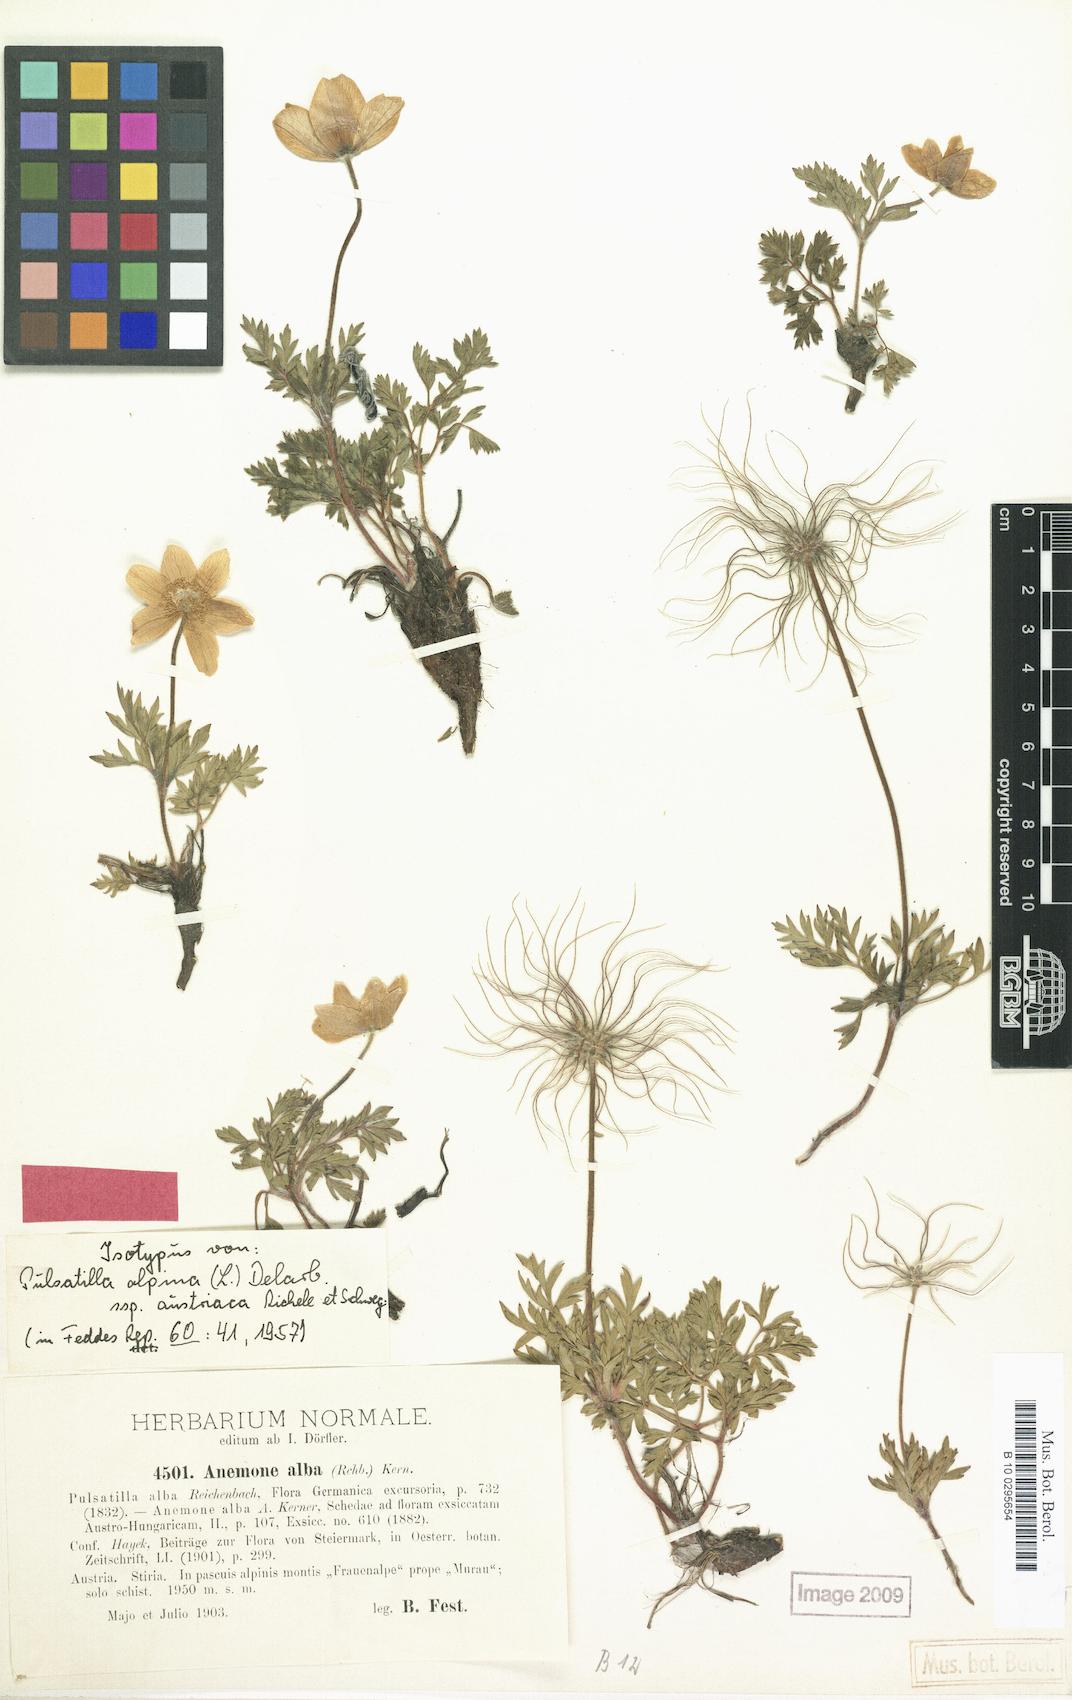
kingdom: Plantae
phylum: Tracheophyta
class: Magnoliopsida
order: Ranunculales
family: Ranunculaceae
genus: Pulsatilla
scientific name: Pulsatilla alpina
